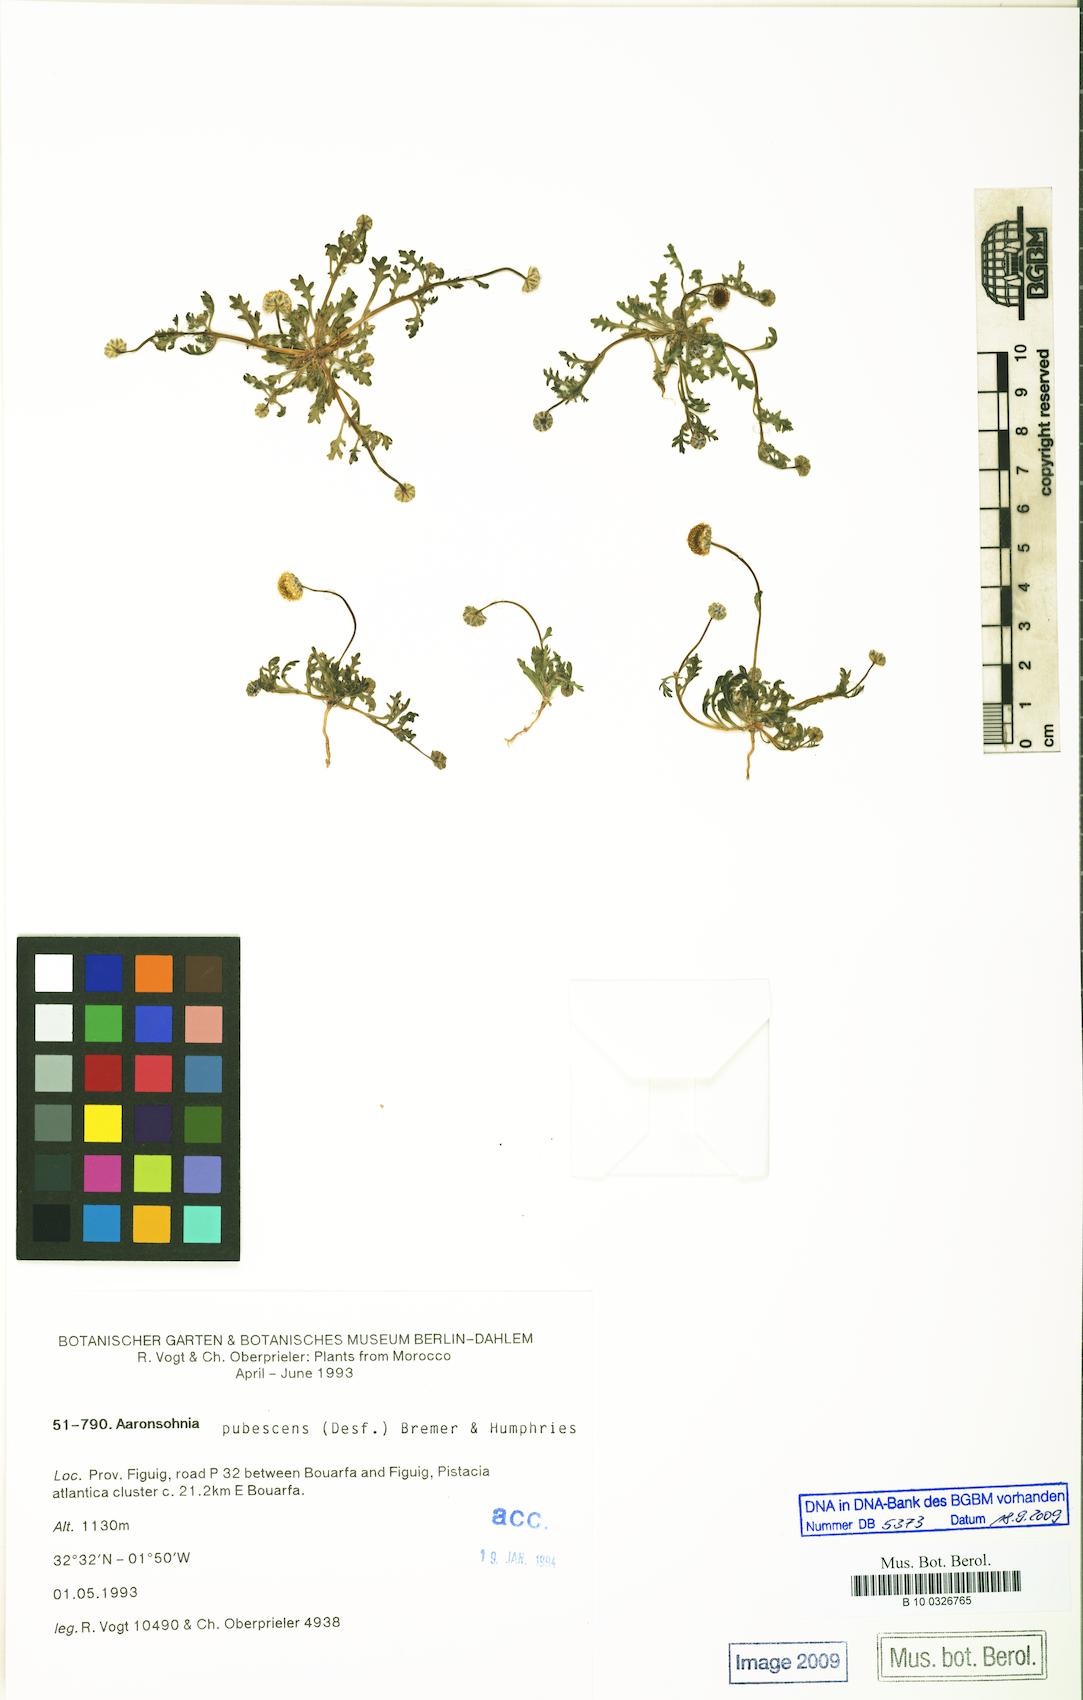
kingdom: Plantae
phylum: Tracheophyta
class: Magnoliopsida
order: Asterales
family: Asteraceae
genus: Otoglyphis
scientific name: Otoglyphis pubescens
